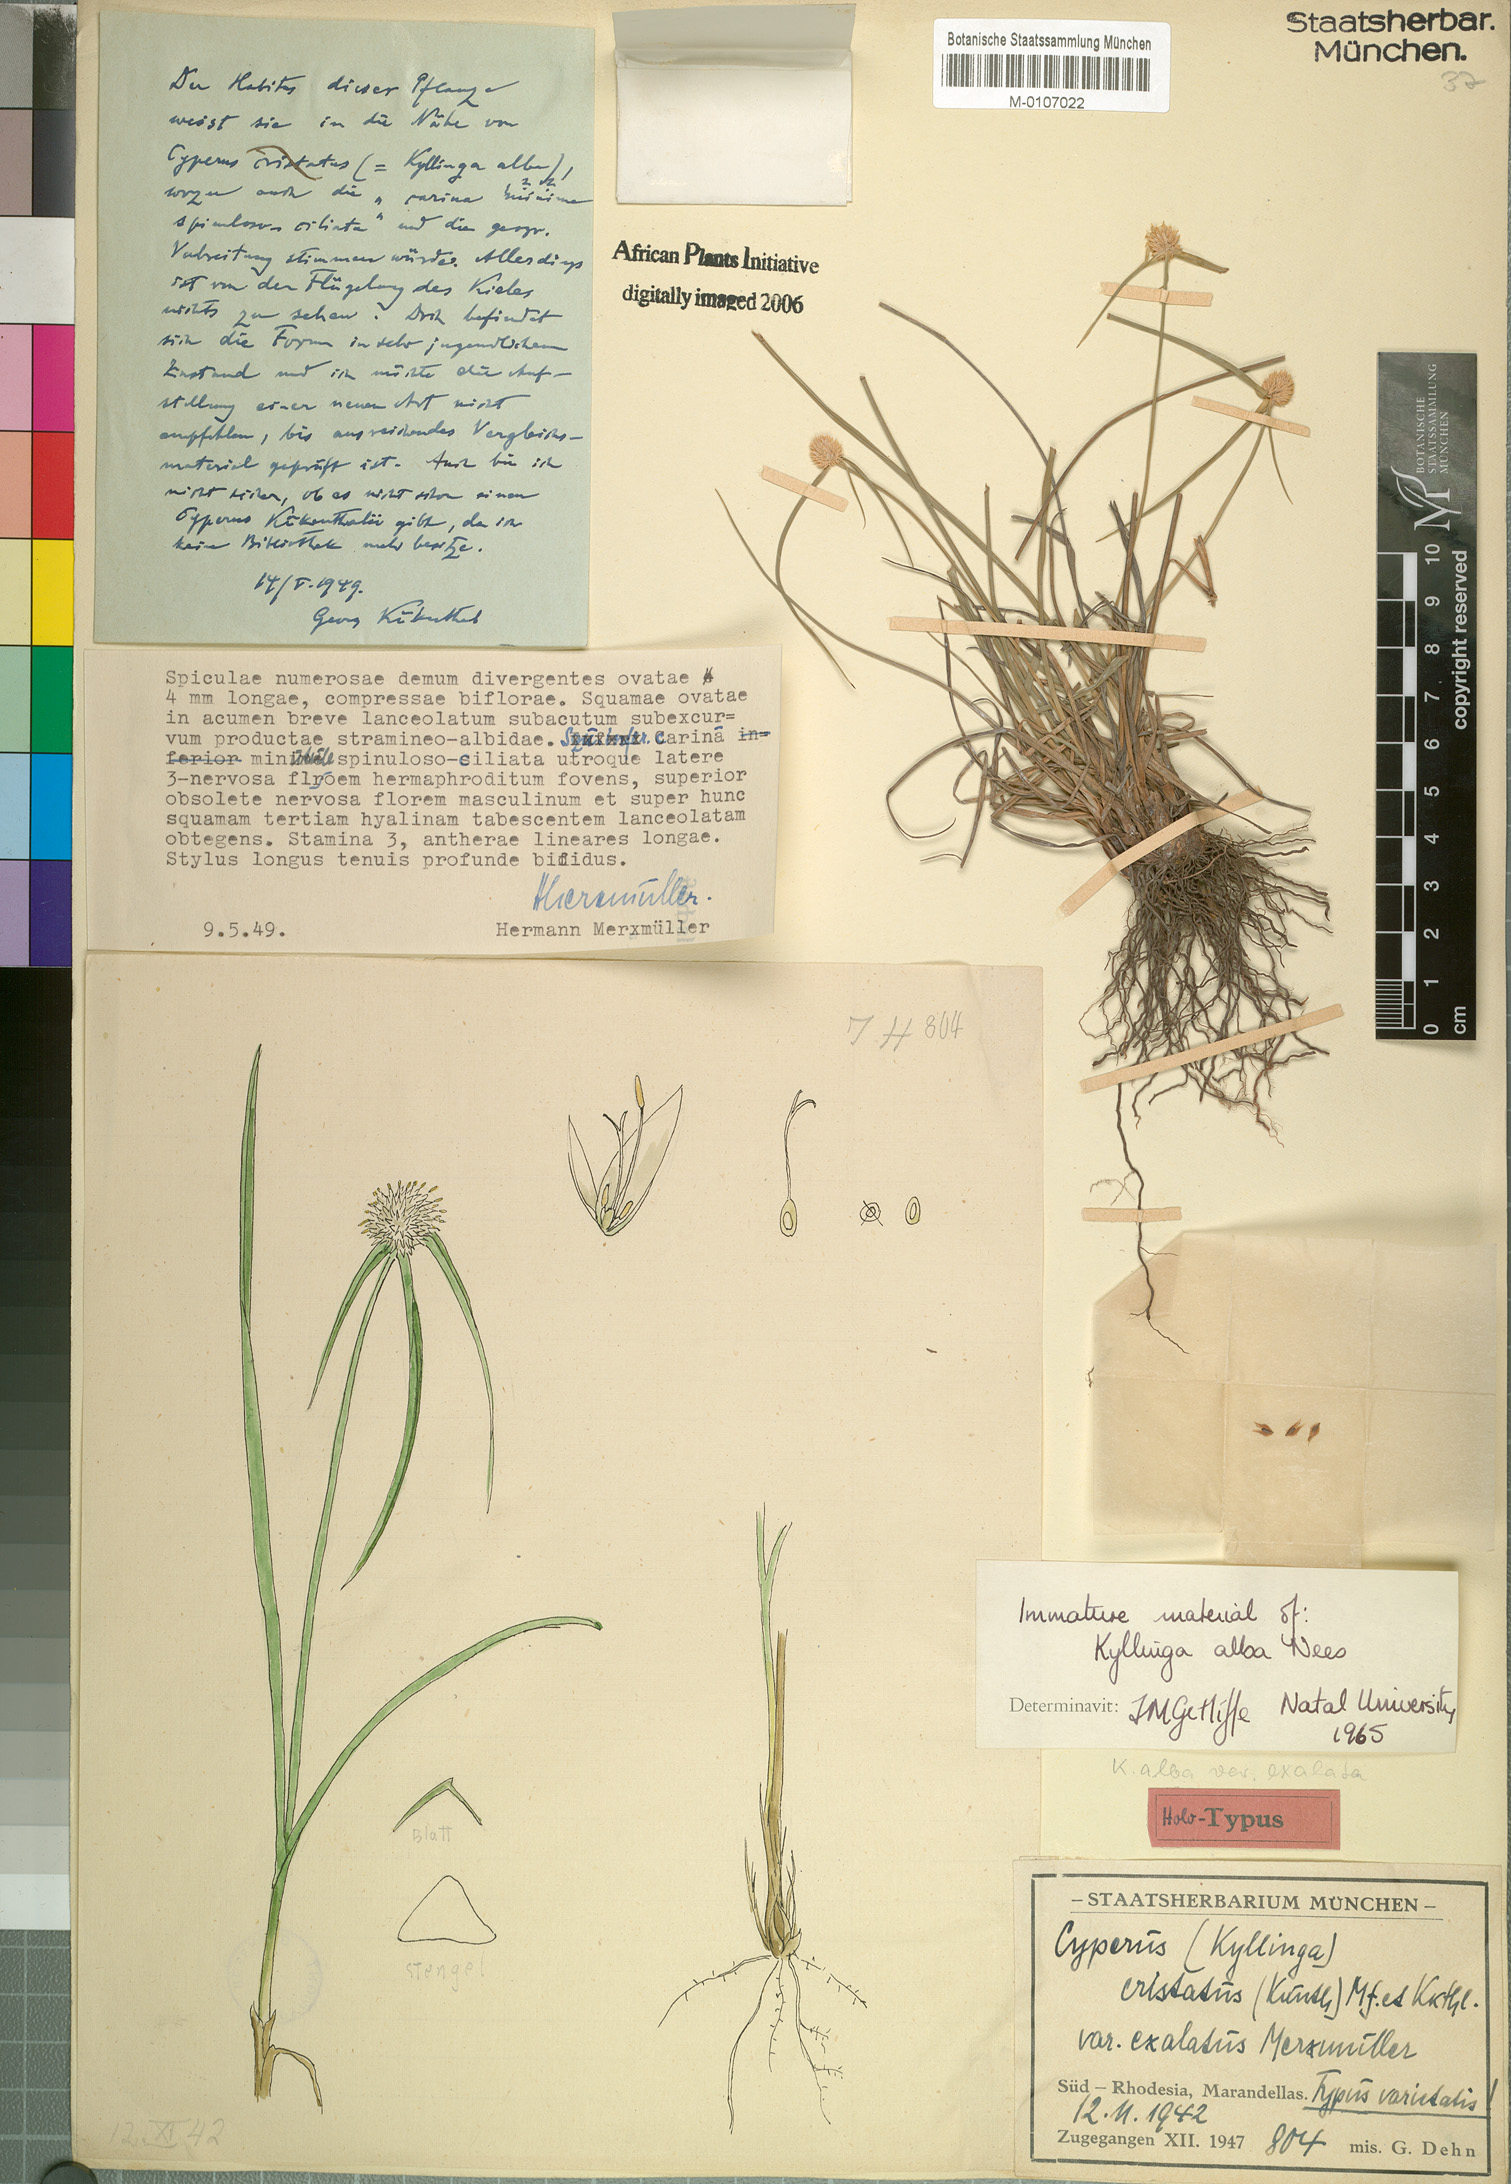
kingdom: Plantae
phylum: Tracheophyta
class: Liliopsida
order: Poales
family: Cyperaceae
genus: Cyperus
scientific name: Cyperus alatus
